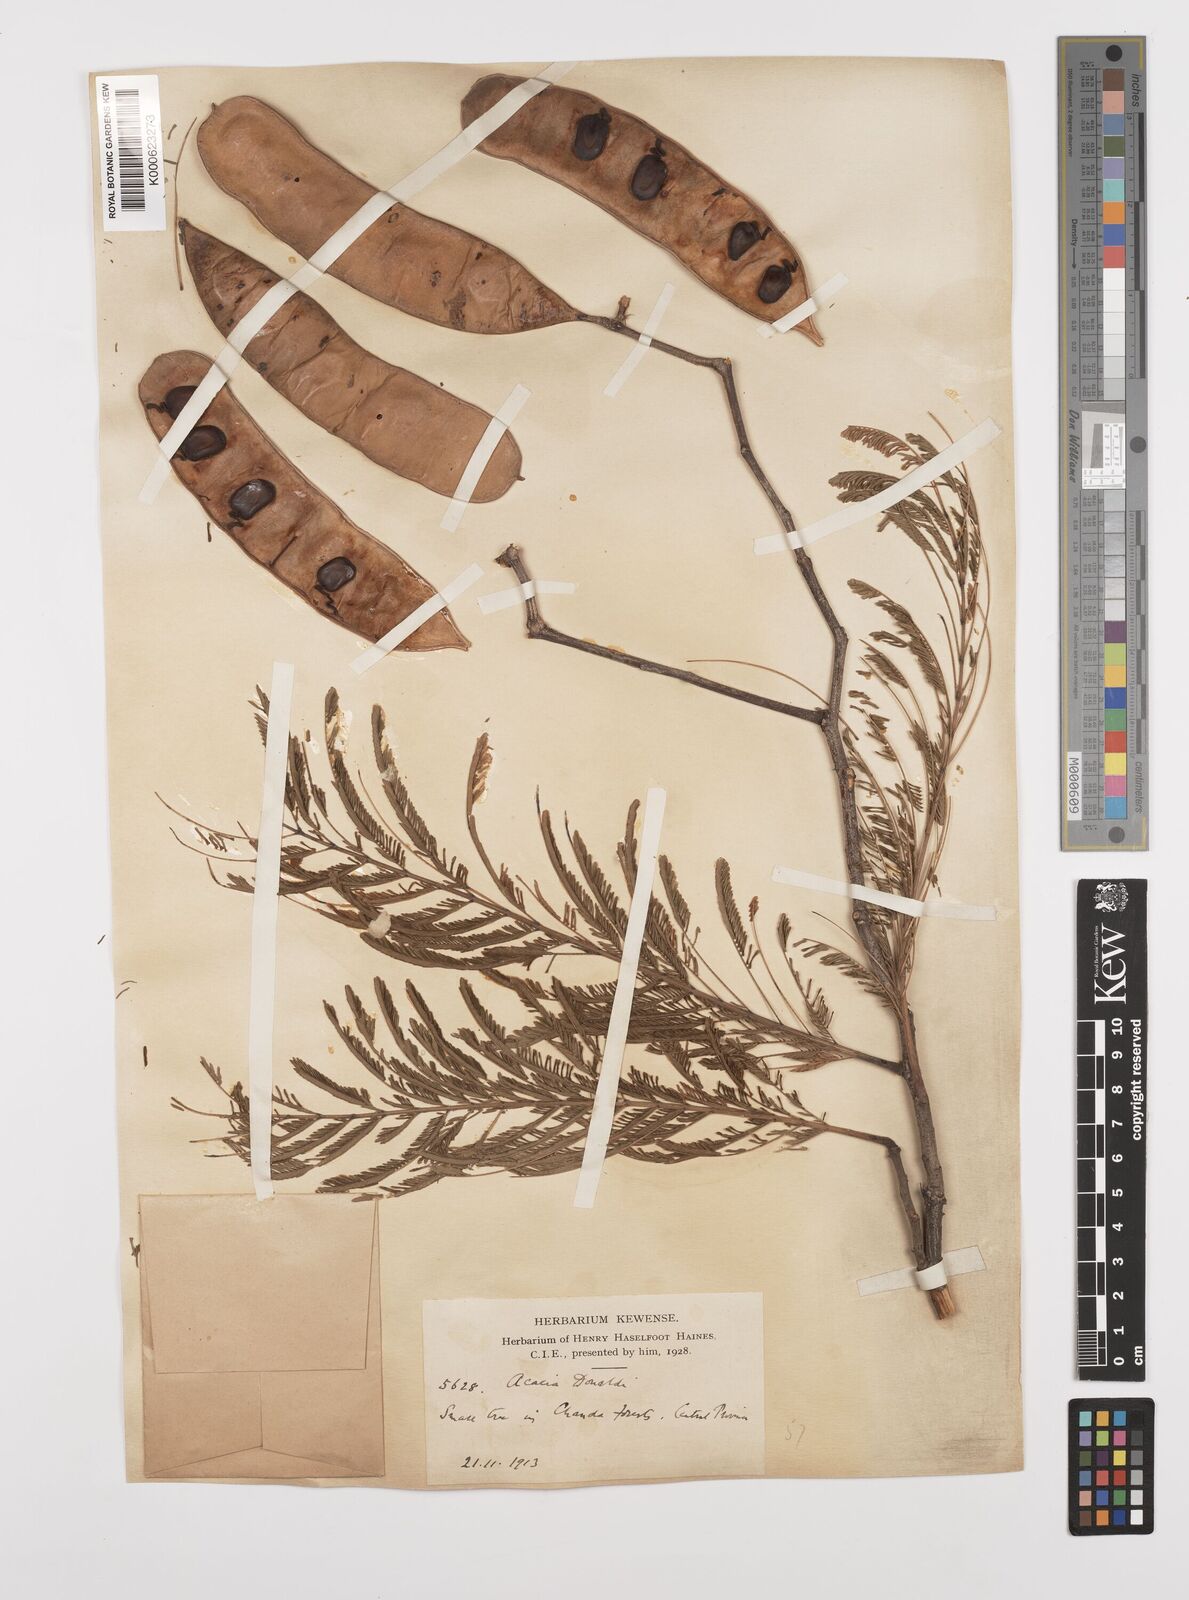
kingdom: Plantae
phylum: Tracheophyta
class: Magnoliopsida
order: Fabales
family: Fabaceae
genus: Senegalia
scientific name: Senegalia donaldi
